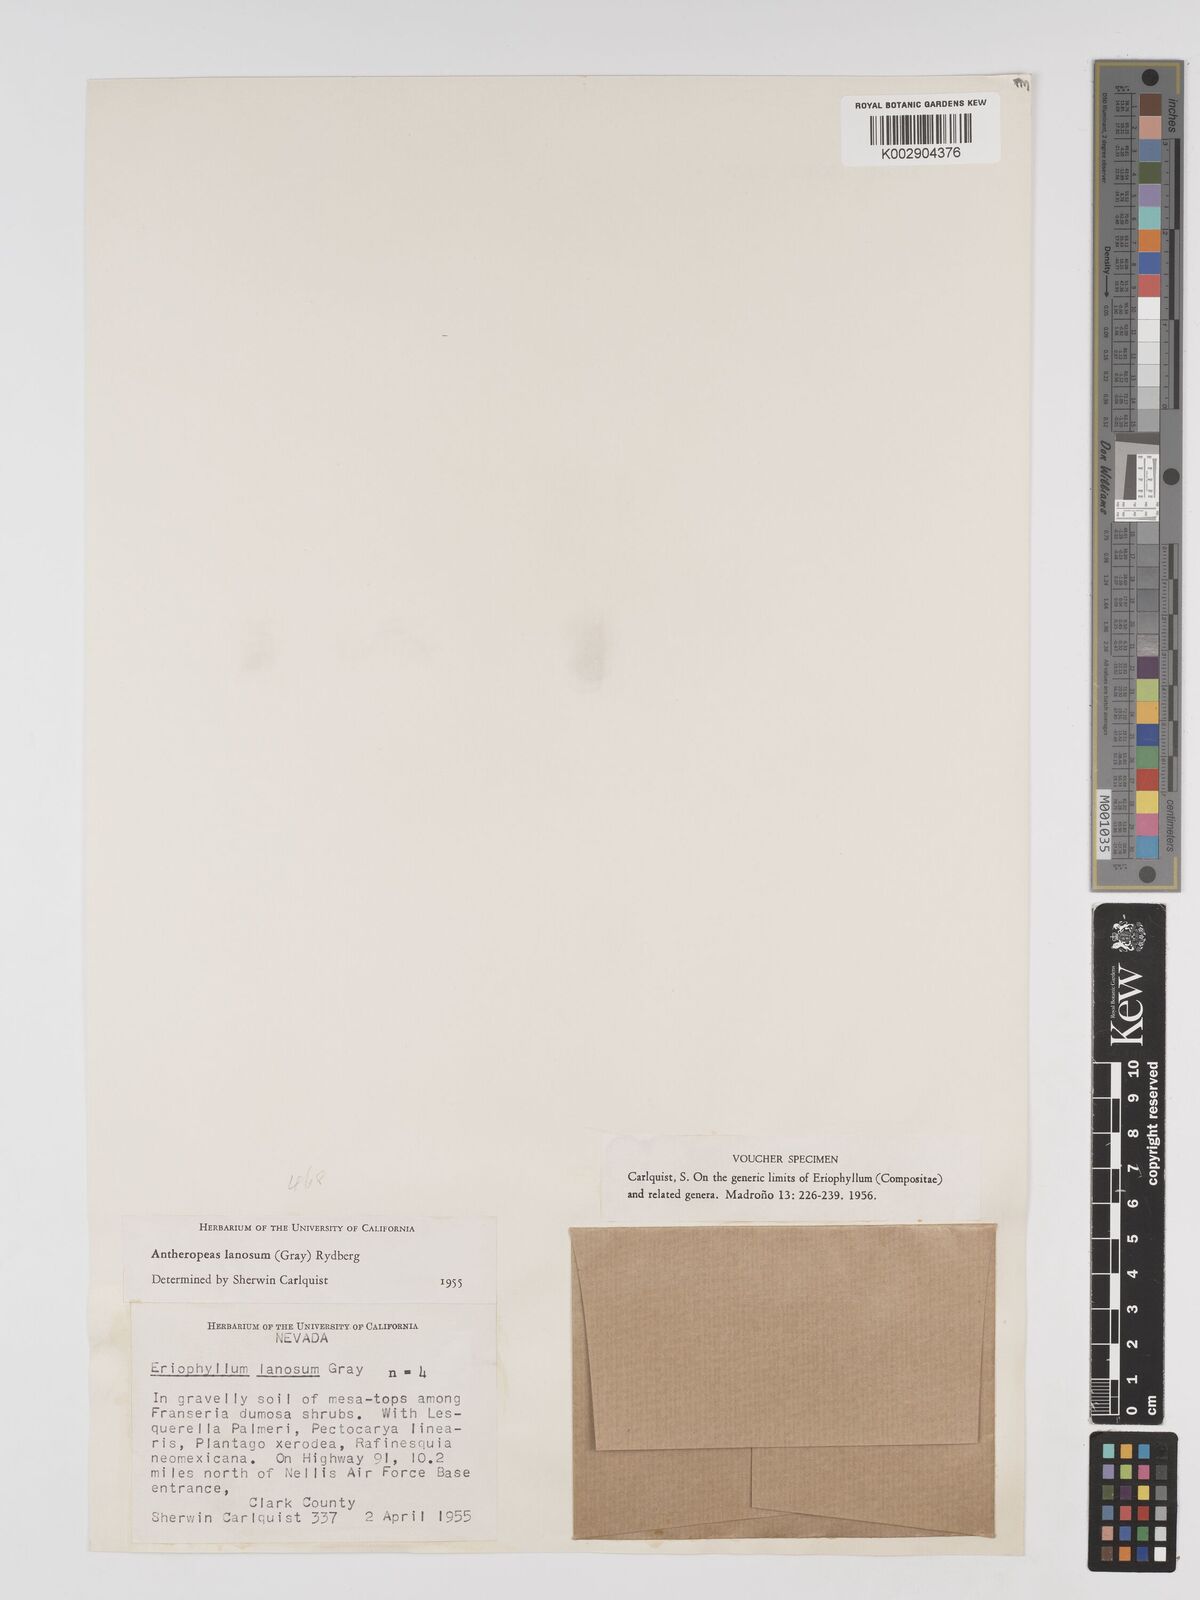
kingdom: Plantae
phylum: Tracheophyta
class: Magnoliopsida
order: Asterales
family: Asteraceae
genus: Eriophyllum
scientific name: Eriophyllum lanosum
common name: White easter-bonnets
